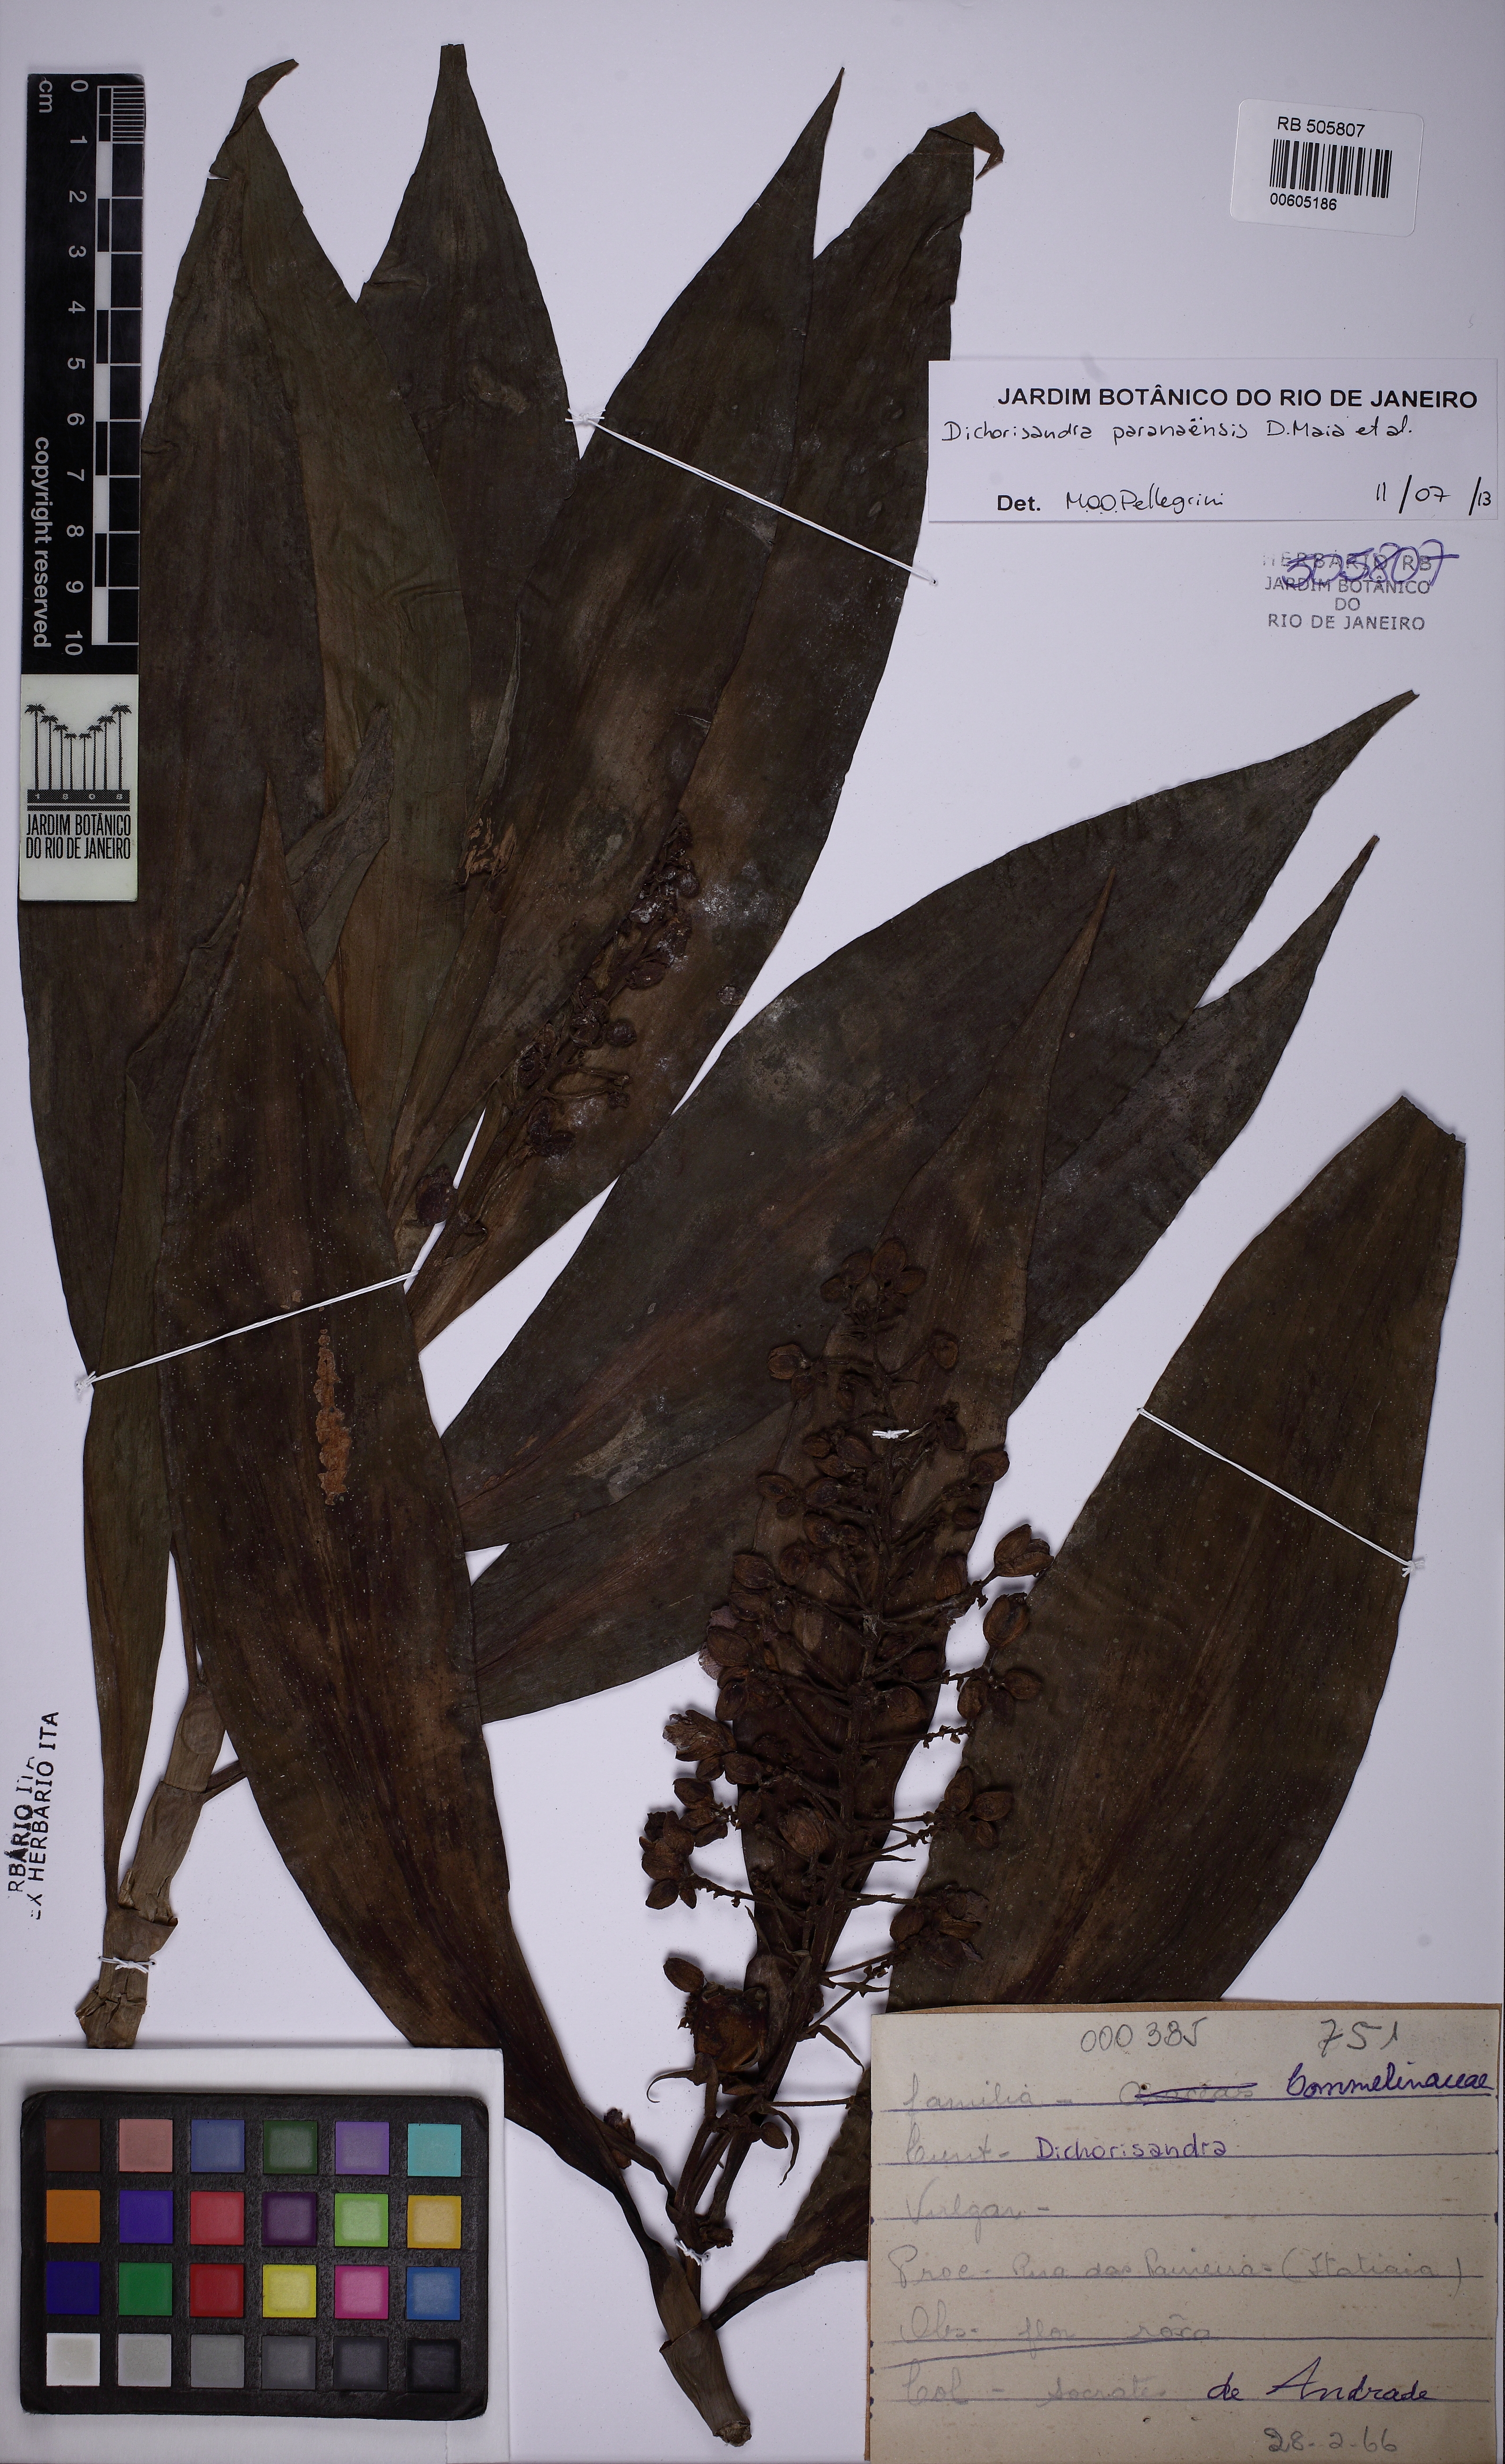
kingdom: Plantae
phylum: Tracheophyta
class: Liliopsida
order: Commelinales
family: Commelinaceae
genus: Dichorisandra
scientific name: Dichorisandra paranaensis
